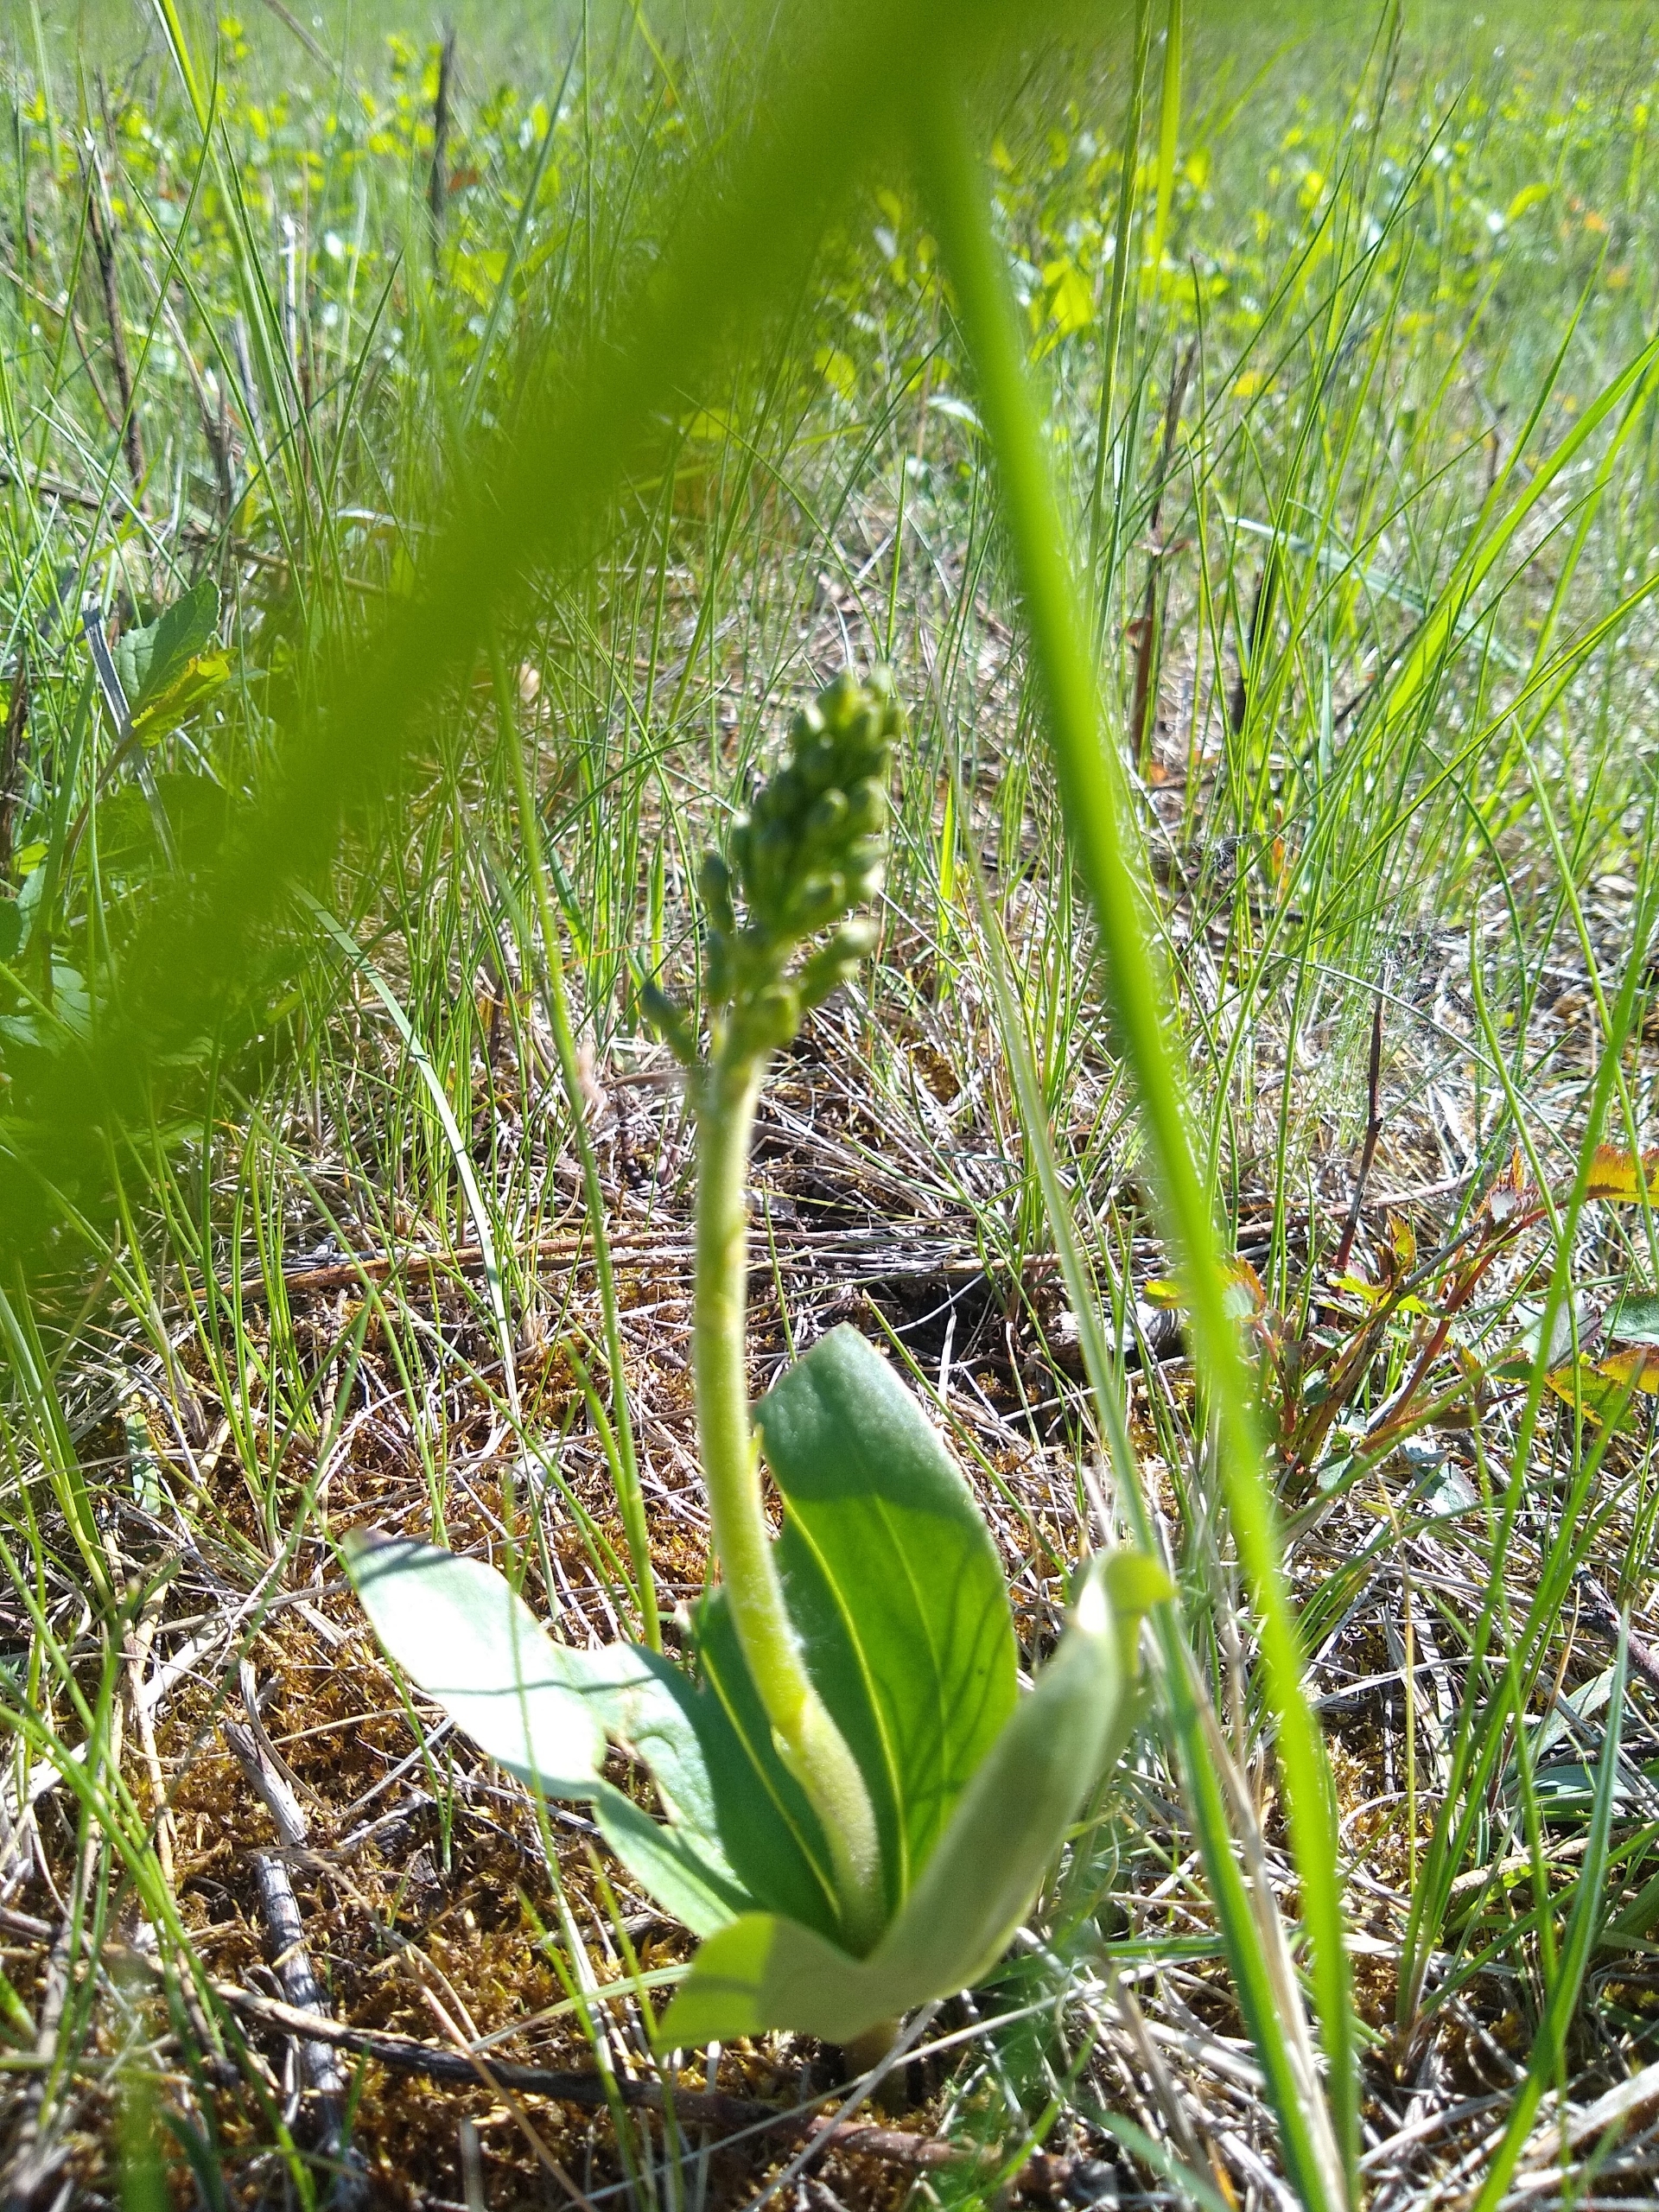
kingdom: Plantae
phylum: Tracheophyta
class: Liliopsida
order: Asparagales
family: Orchidaceae
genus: Neottia
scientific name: Neottia ovata
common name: Ægbladet fliglæbe
